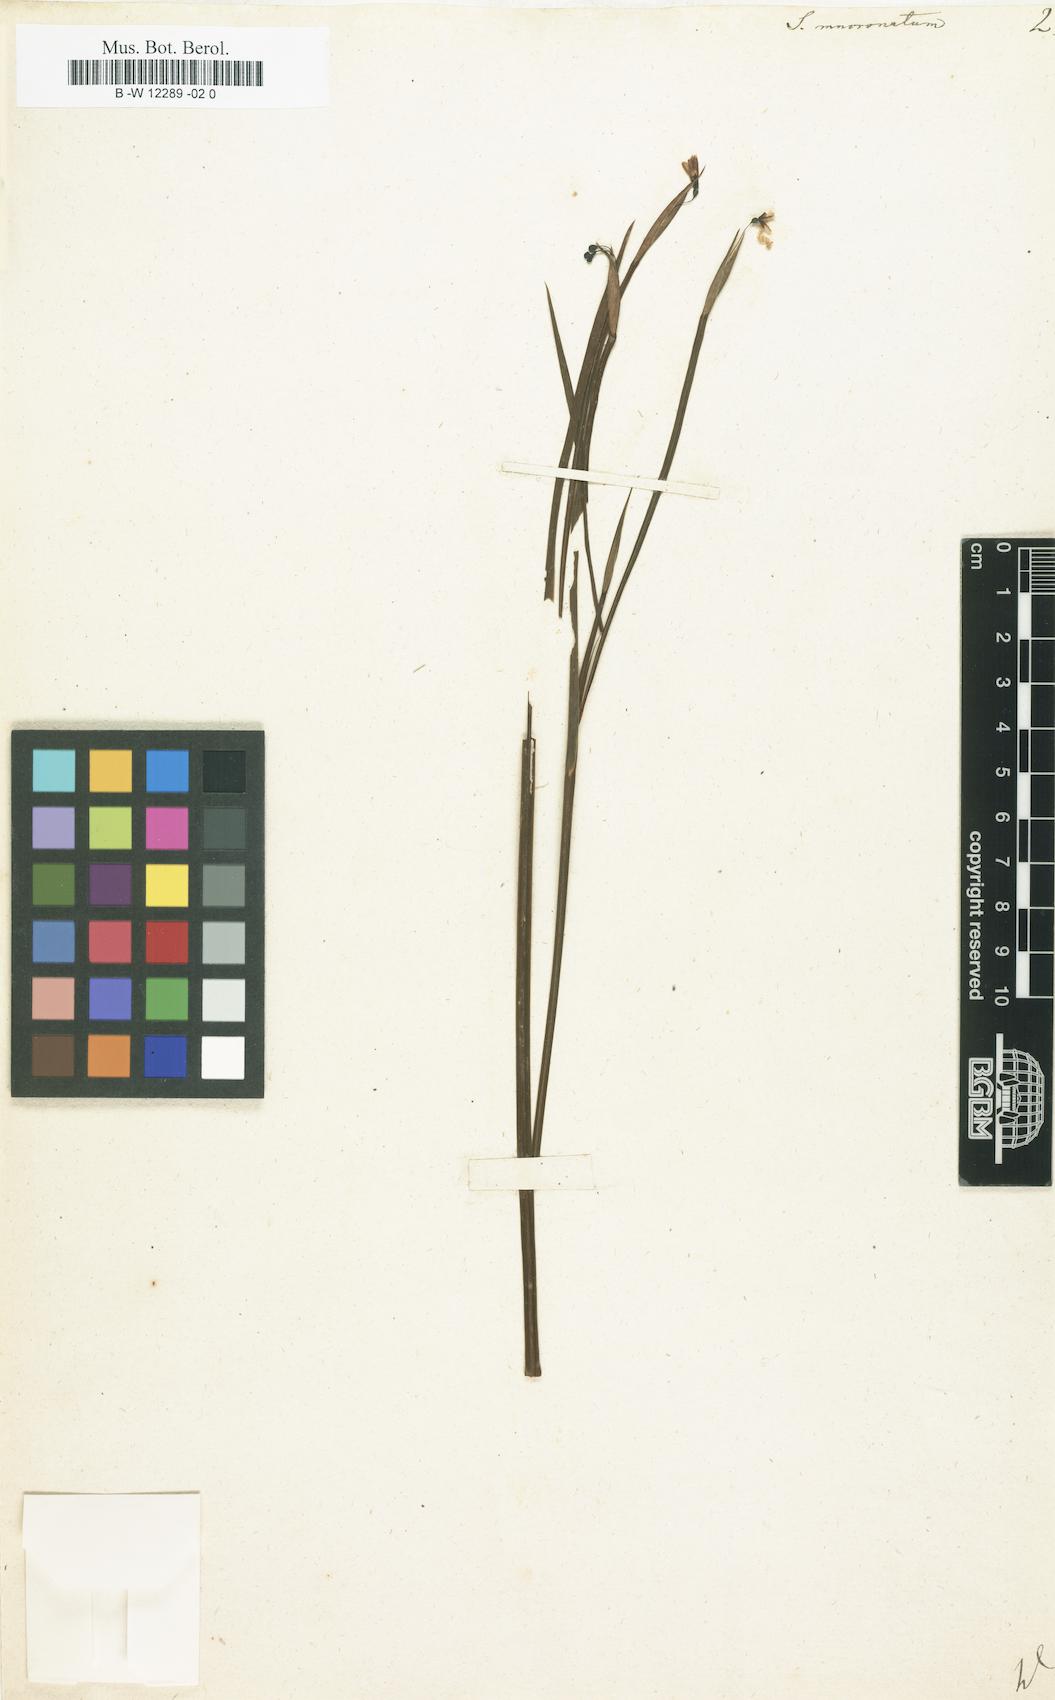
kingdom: Plantae
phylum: Tracheophyta
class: Liliopsida
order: Asparagales
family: Iridaceae
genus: Sisyrinchium
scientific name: Sisyrinchium mucronatum
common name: Eastern blue-eyed-grass
